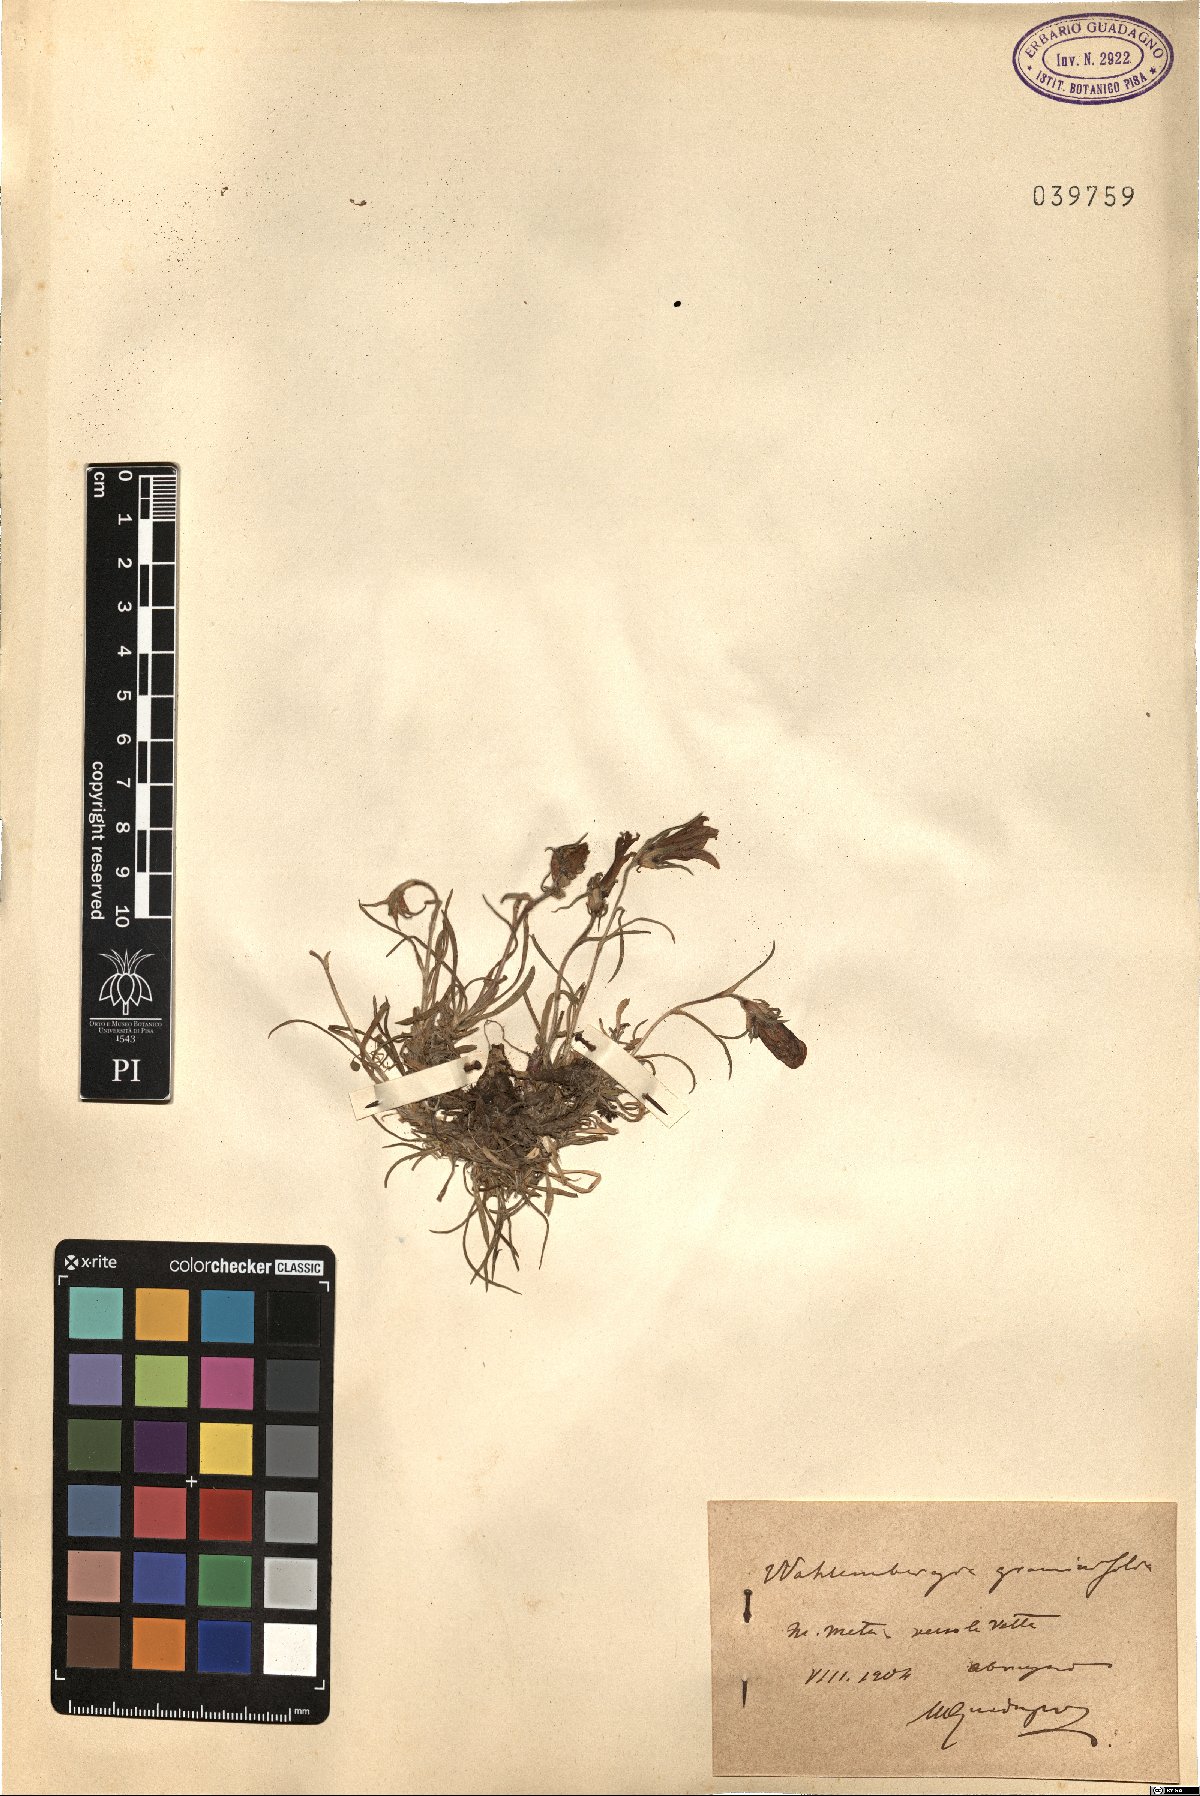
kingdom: Plantae
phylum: Tracheophyta
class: Magnoliopsida
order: Asterales
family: Campanulaceae
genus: Edraianthus
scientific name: Edraianthus graminifolius
